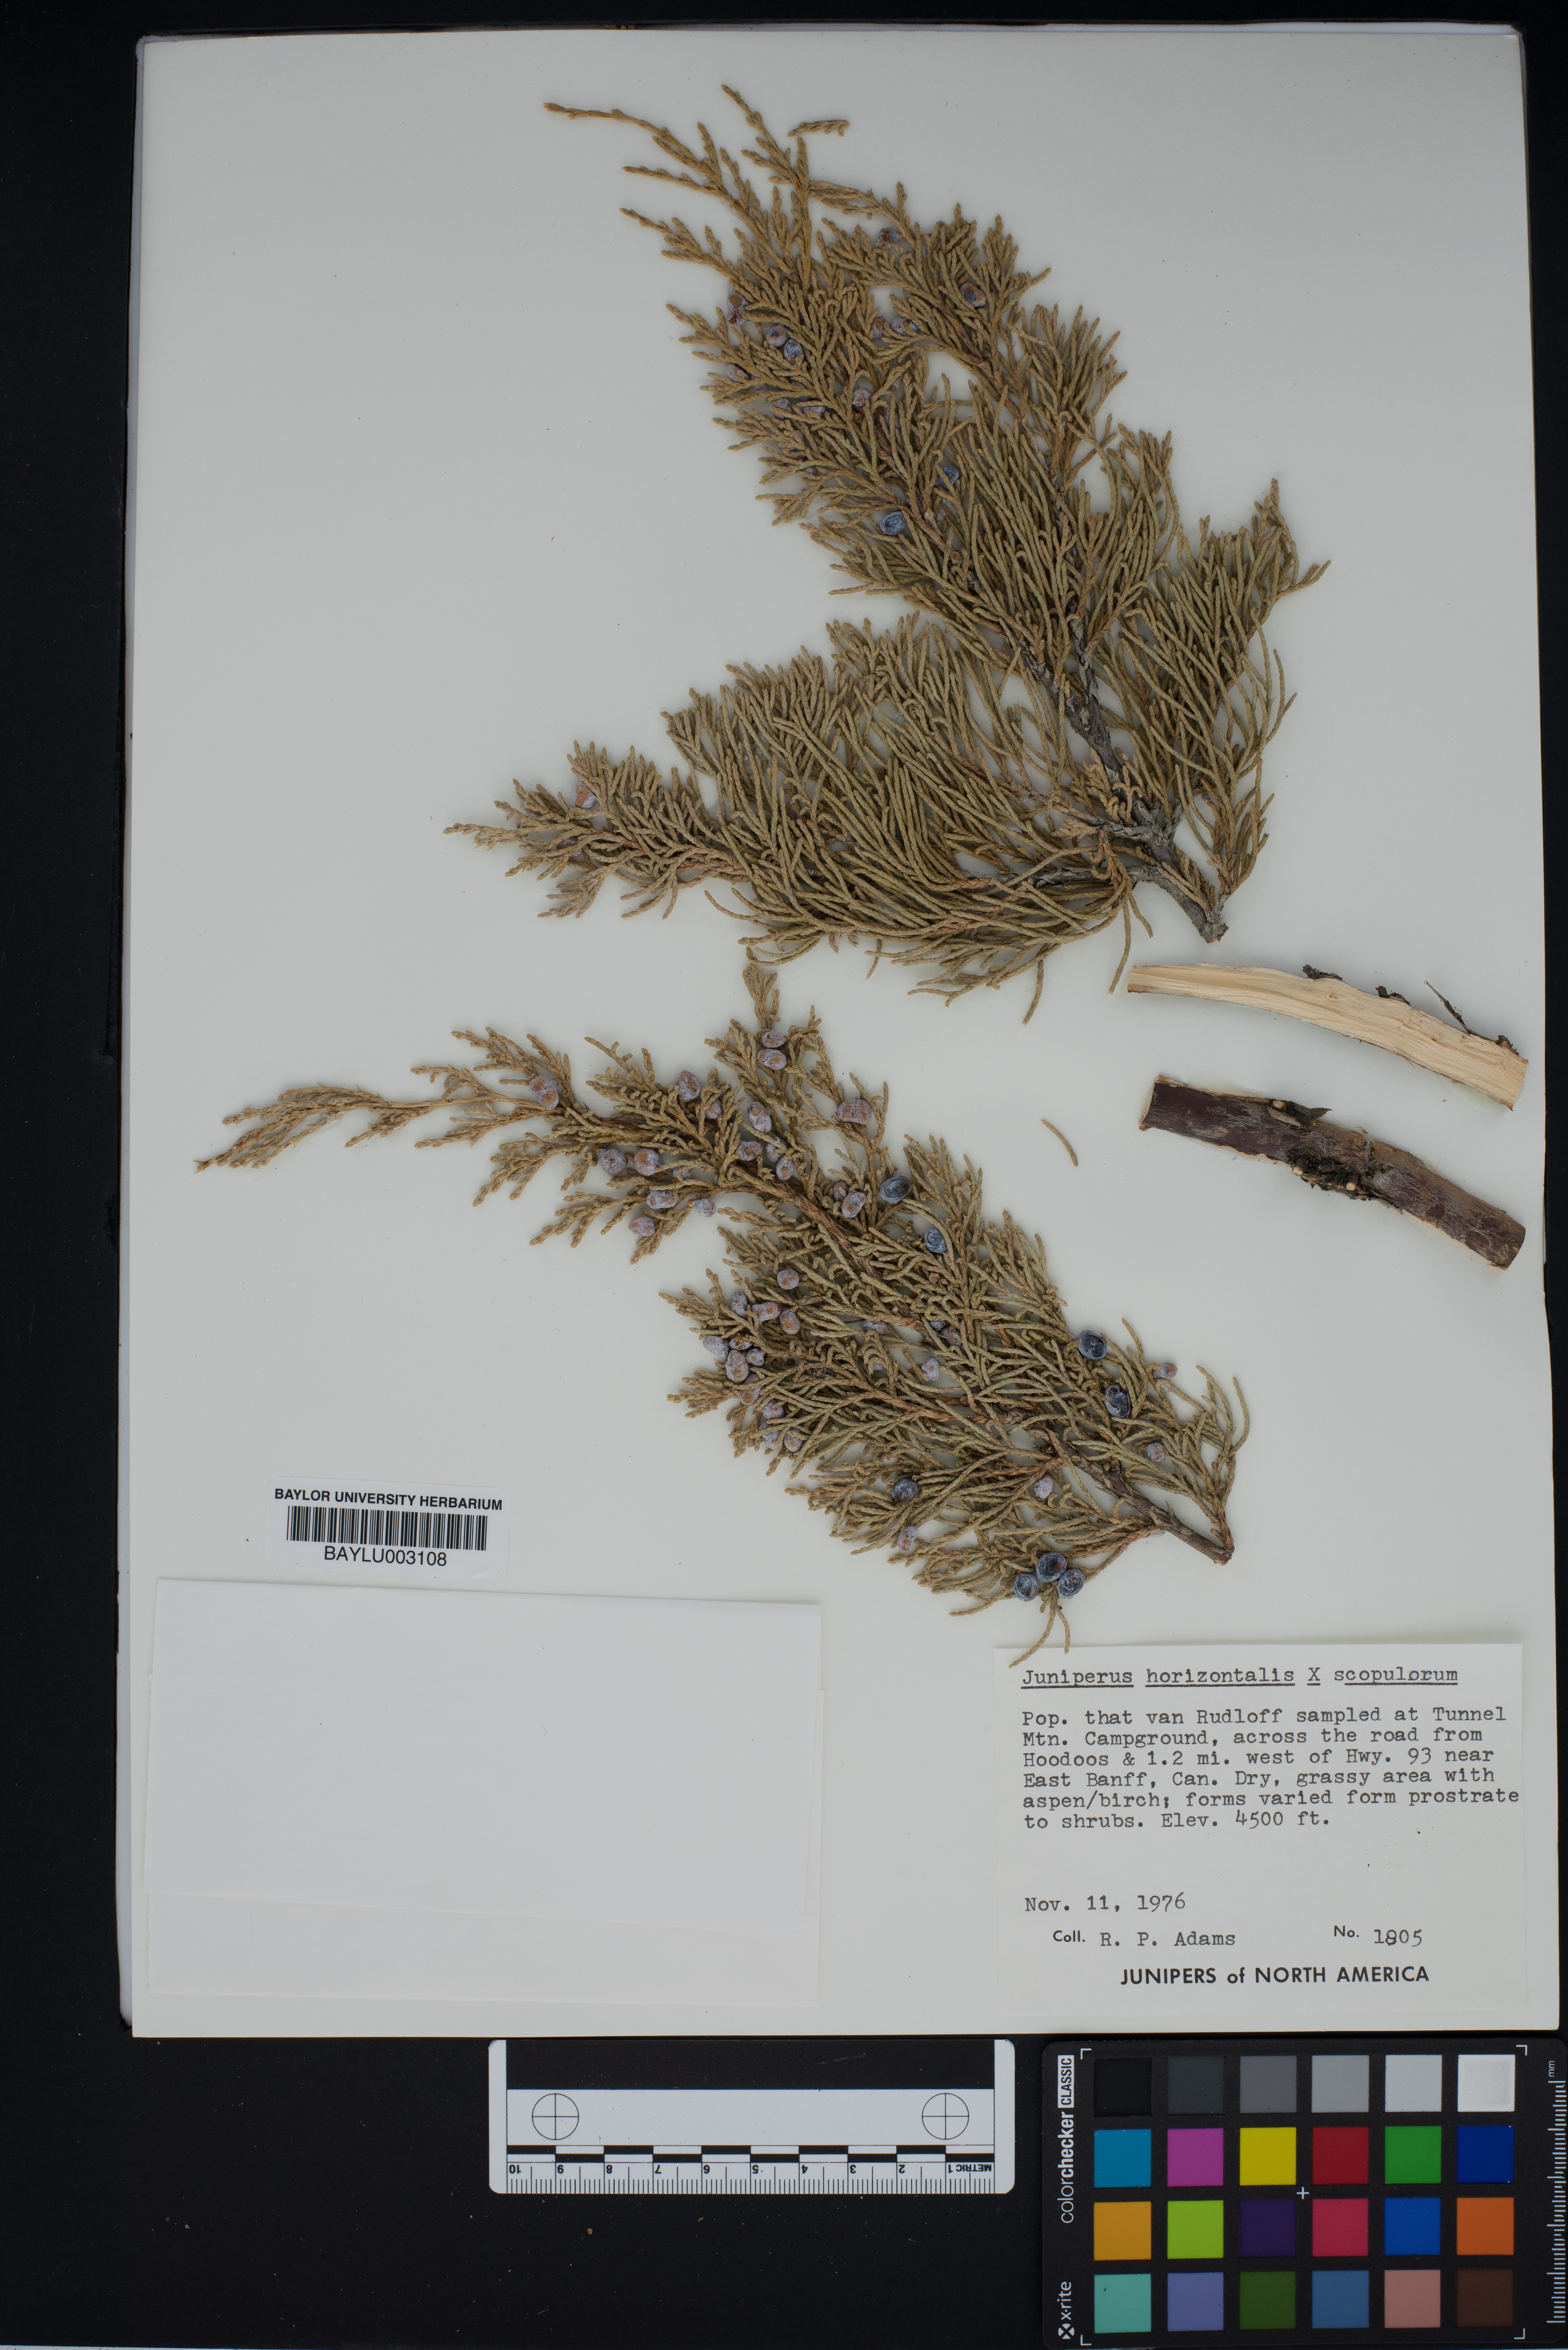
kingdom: Plantae
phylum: Tracheophyta
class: Pinopsida
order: Pinales
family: Cupressaceae
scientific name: Cupressaceae
